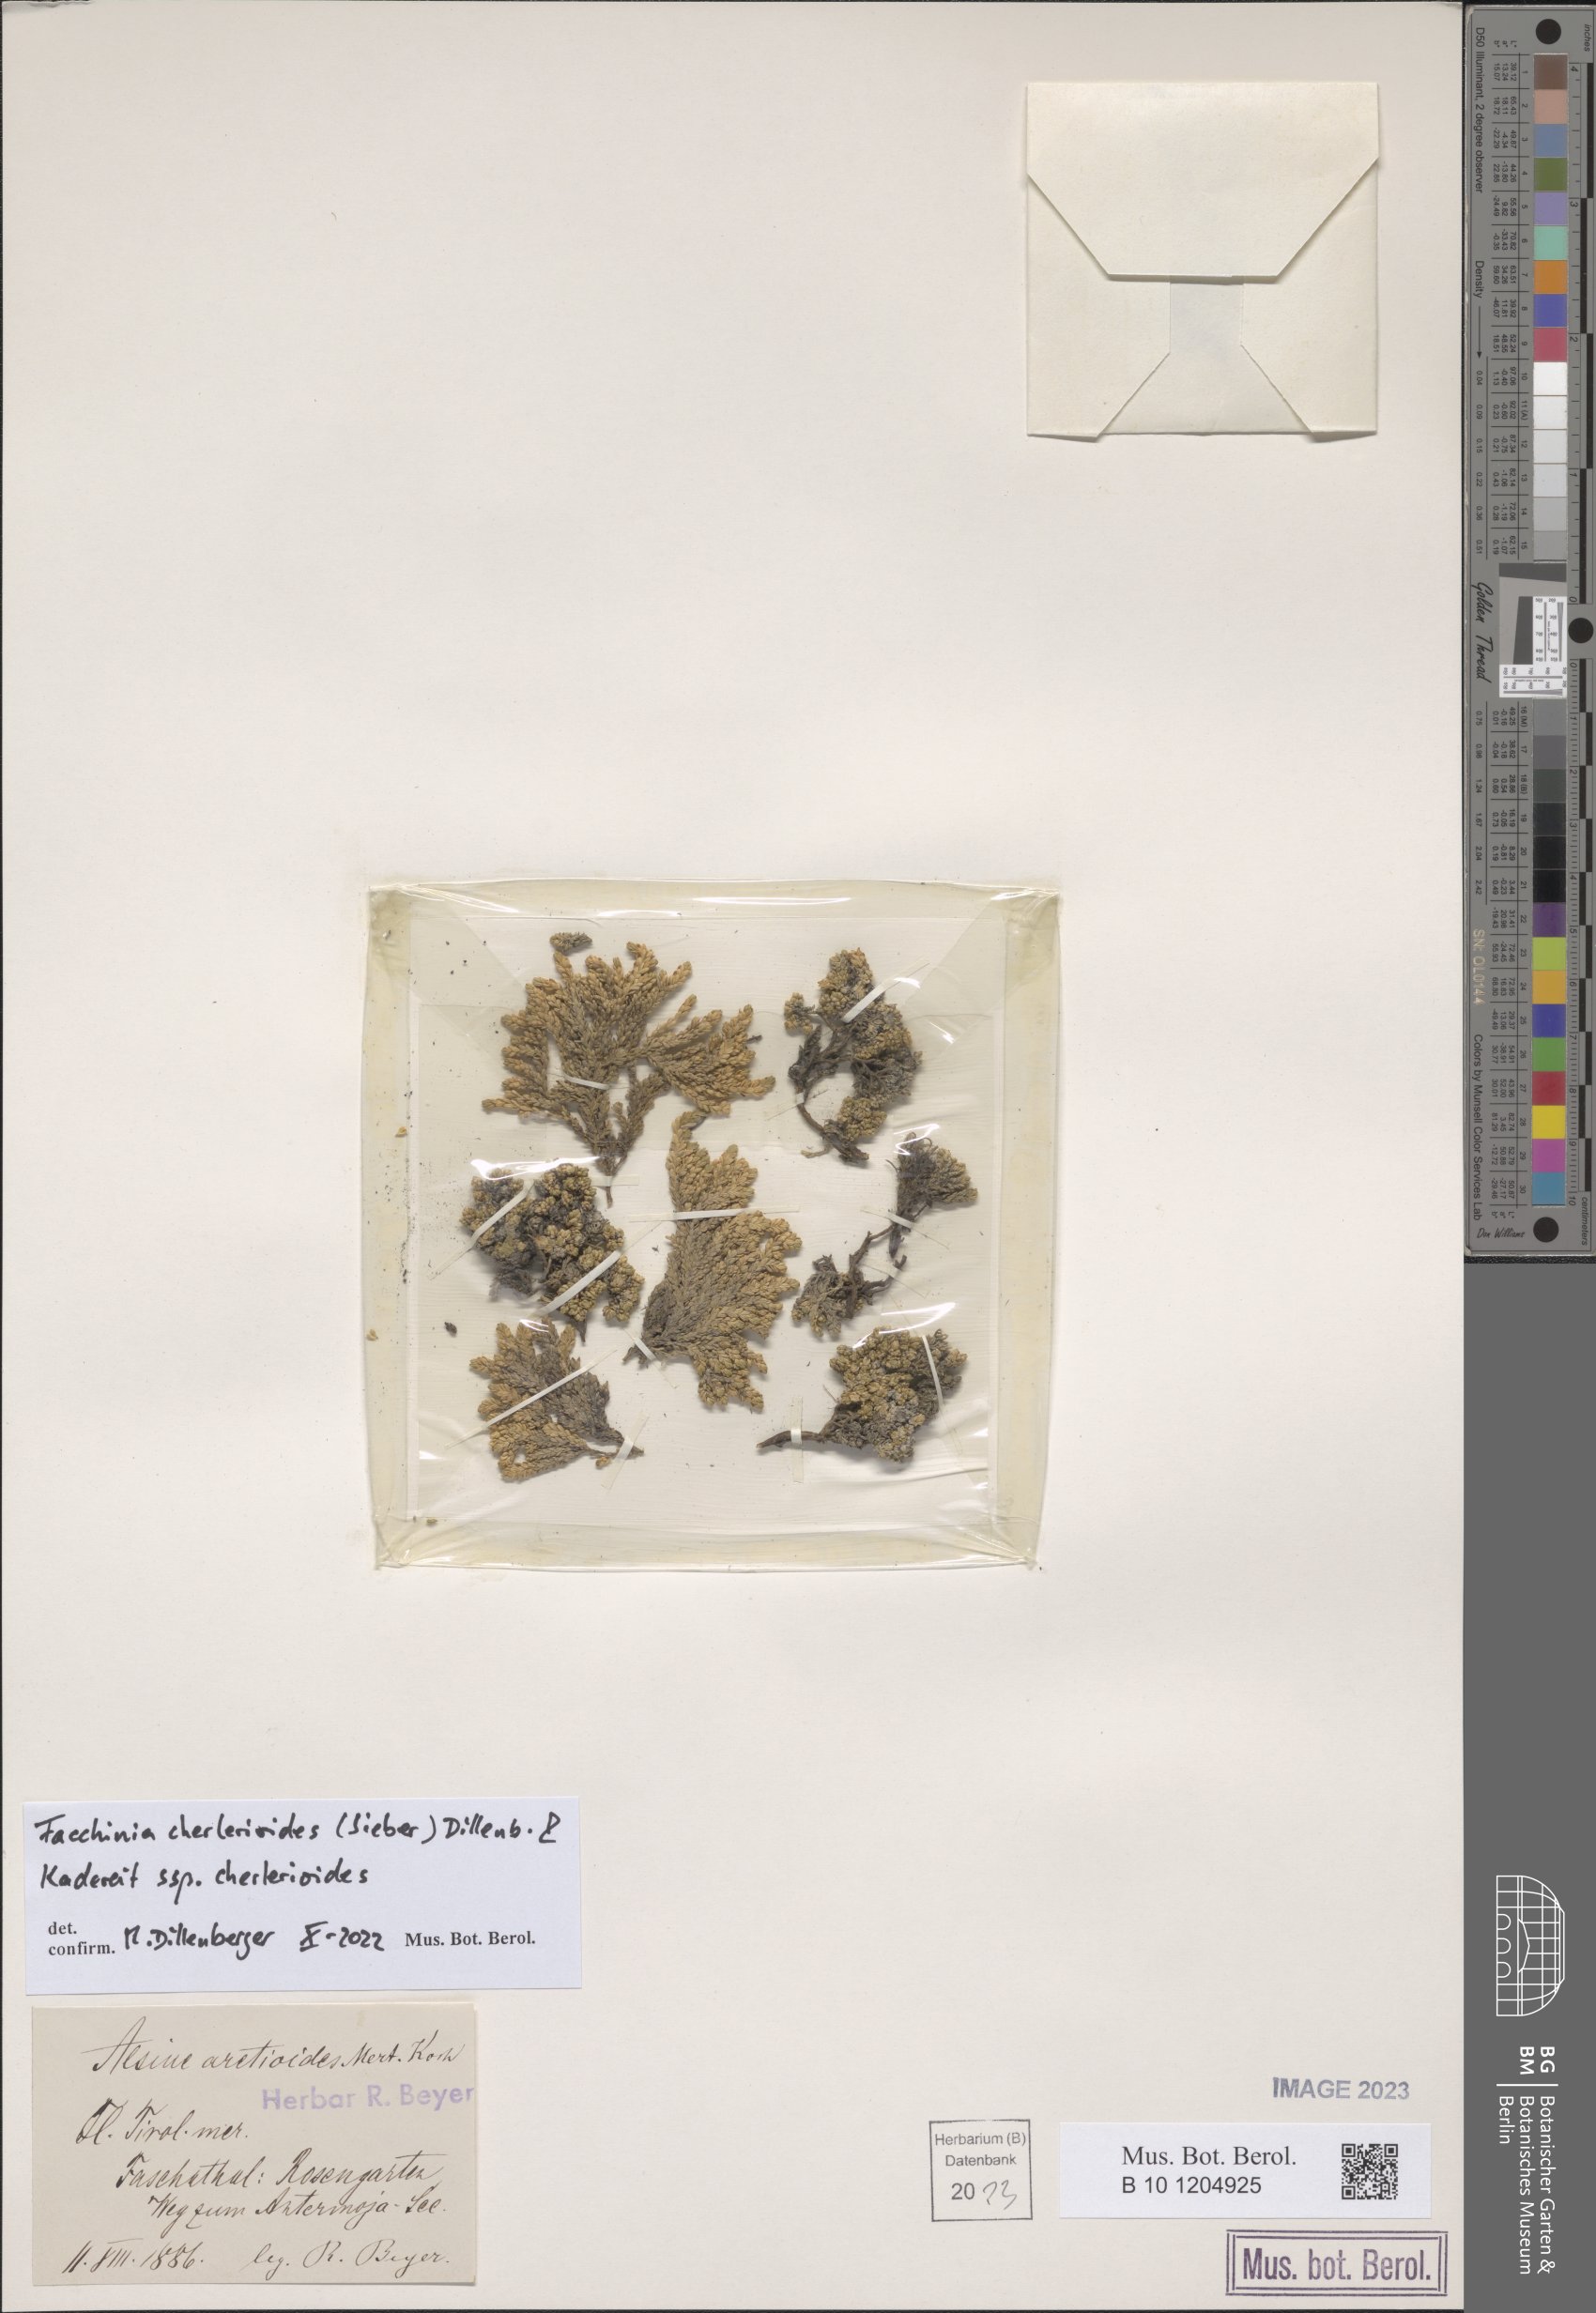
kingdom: Plantae
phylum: Tracheophyta
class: Magnoliopsida
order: Caryophyllales
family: Caryophyllaceae
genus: Facchinia
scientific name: Facchinia cherlerioides
